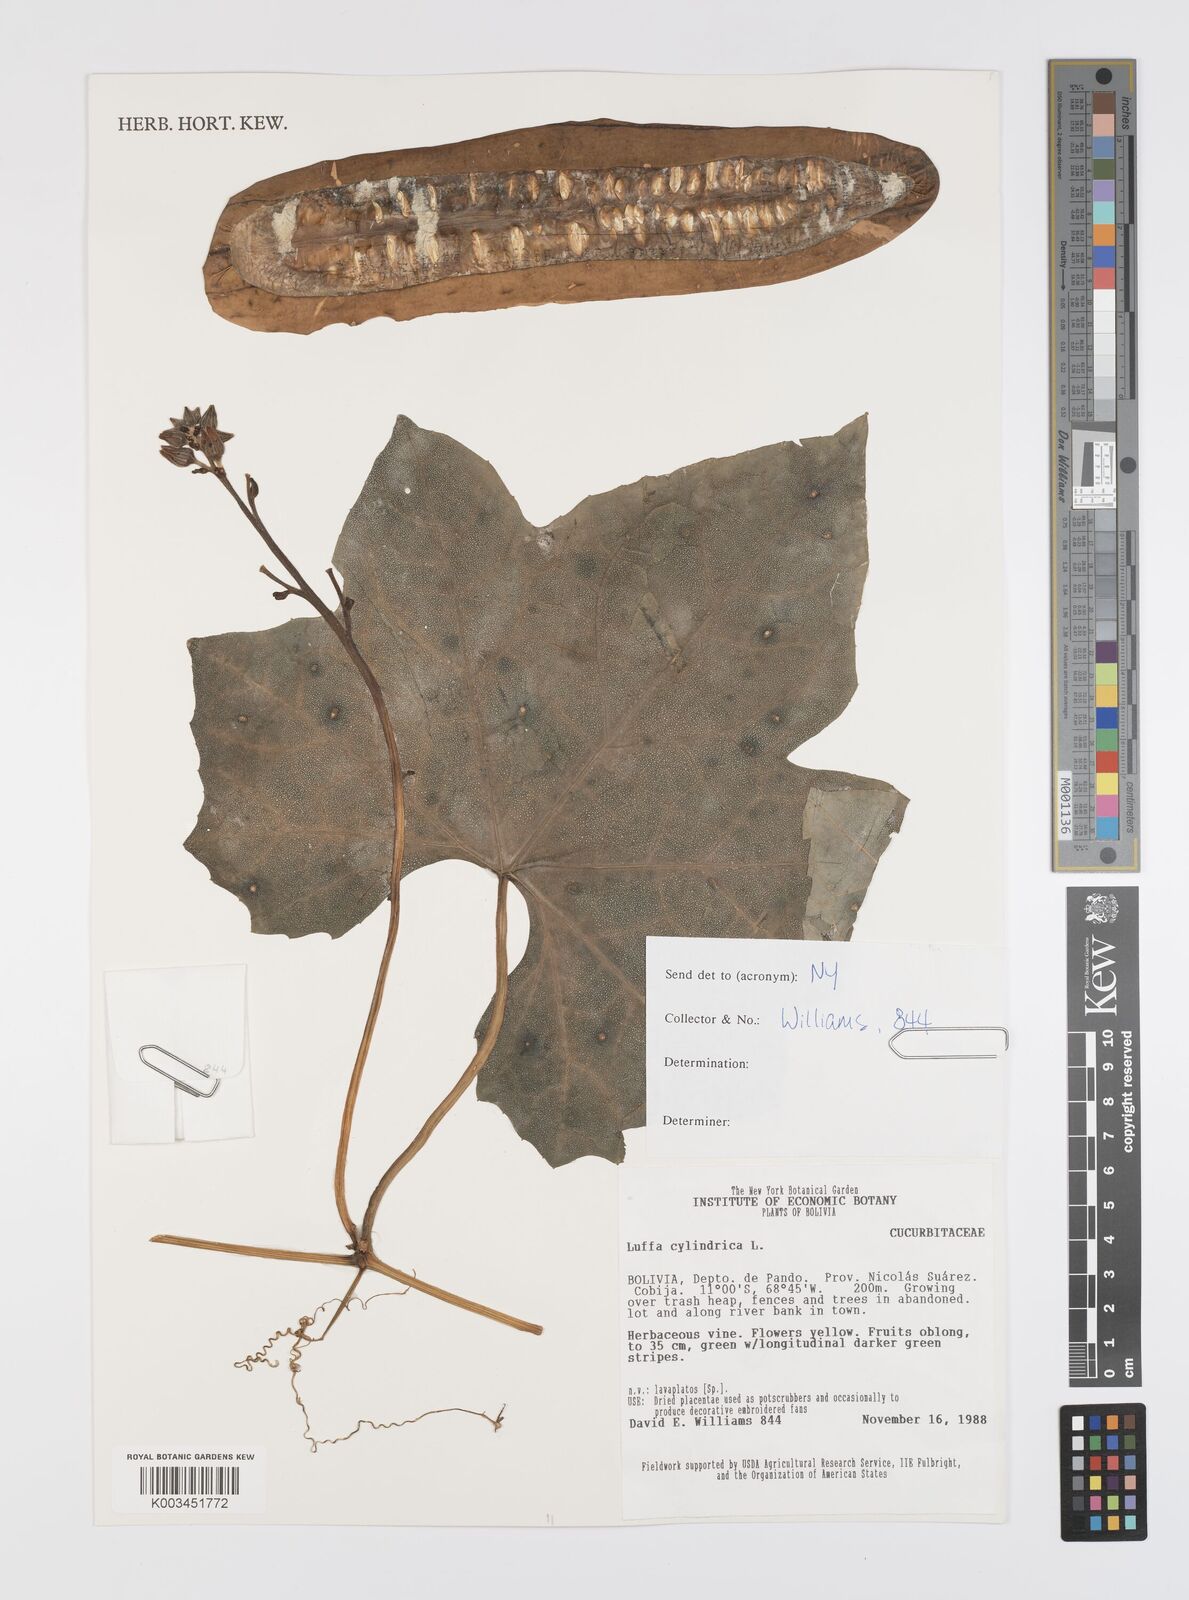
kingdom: Plantae
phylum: Tracheophyta
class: Magnoliopsida
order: Cucurbitales
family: Cucurbitaceae
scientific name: Cucurbitaceae
